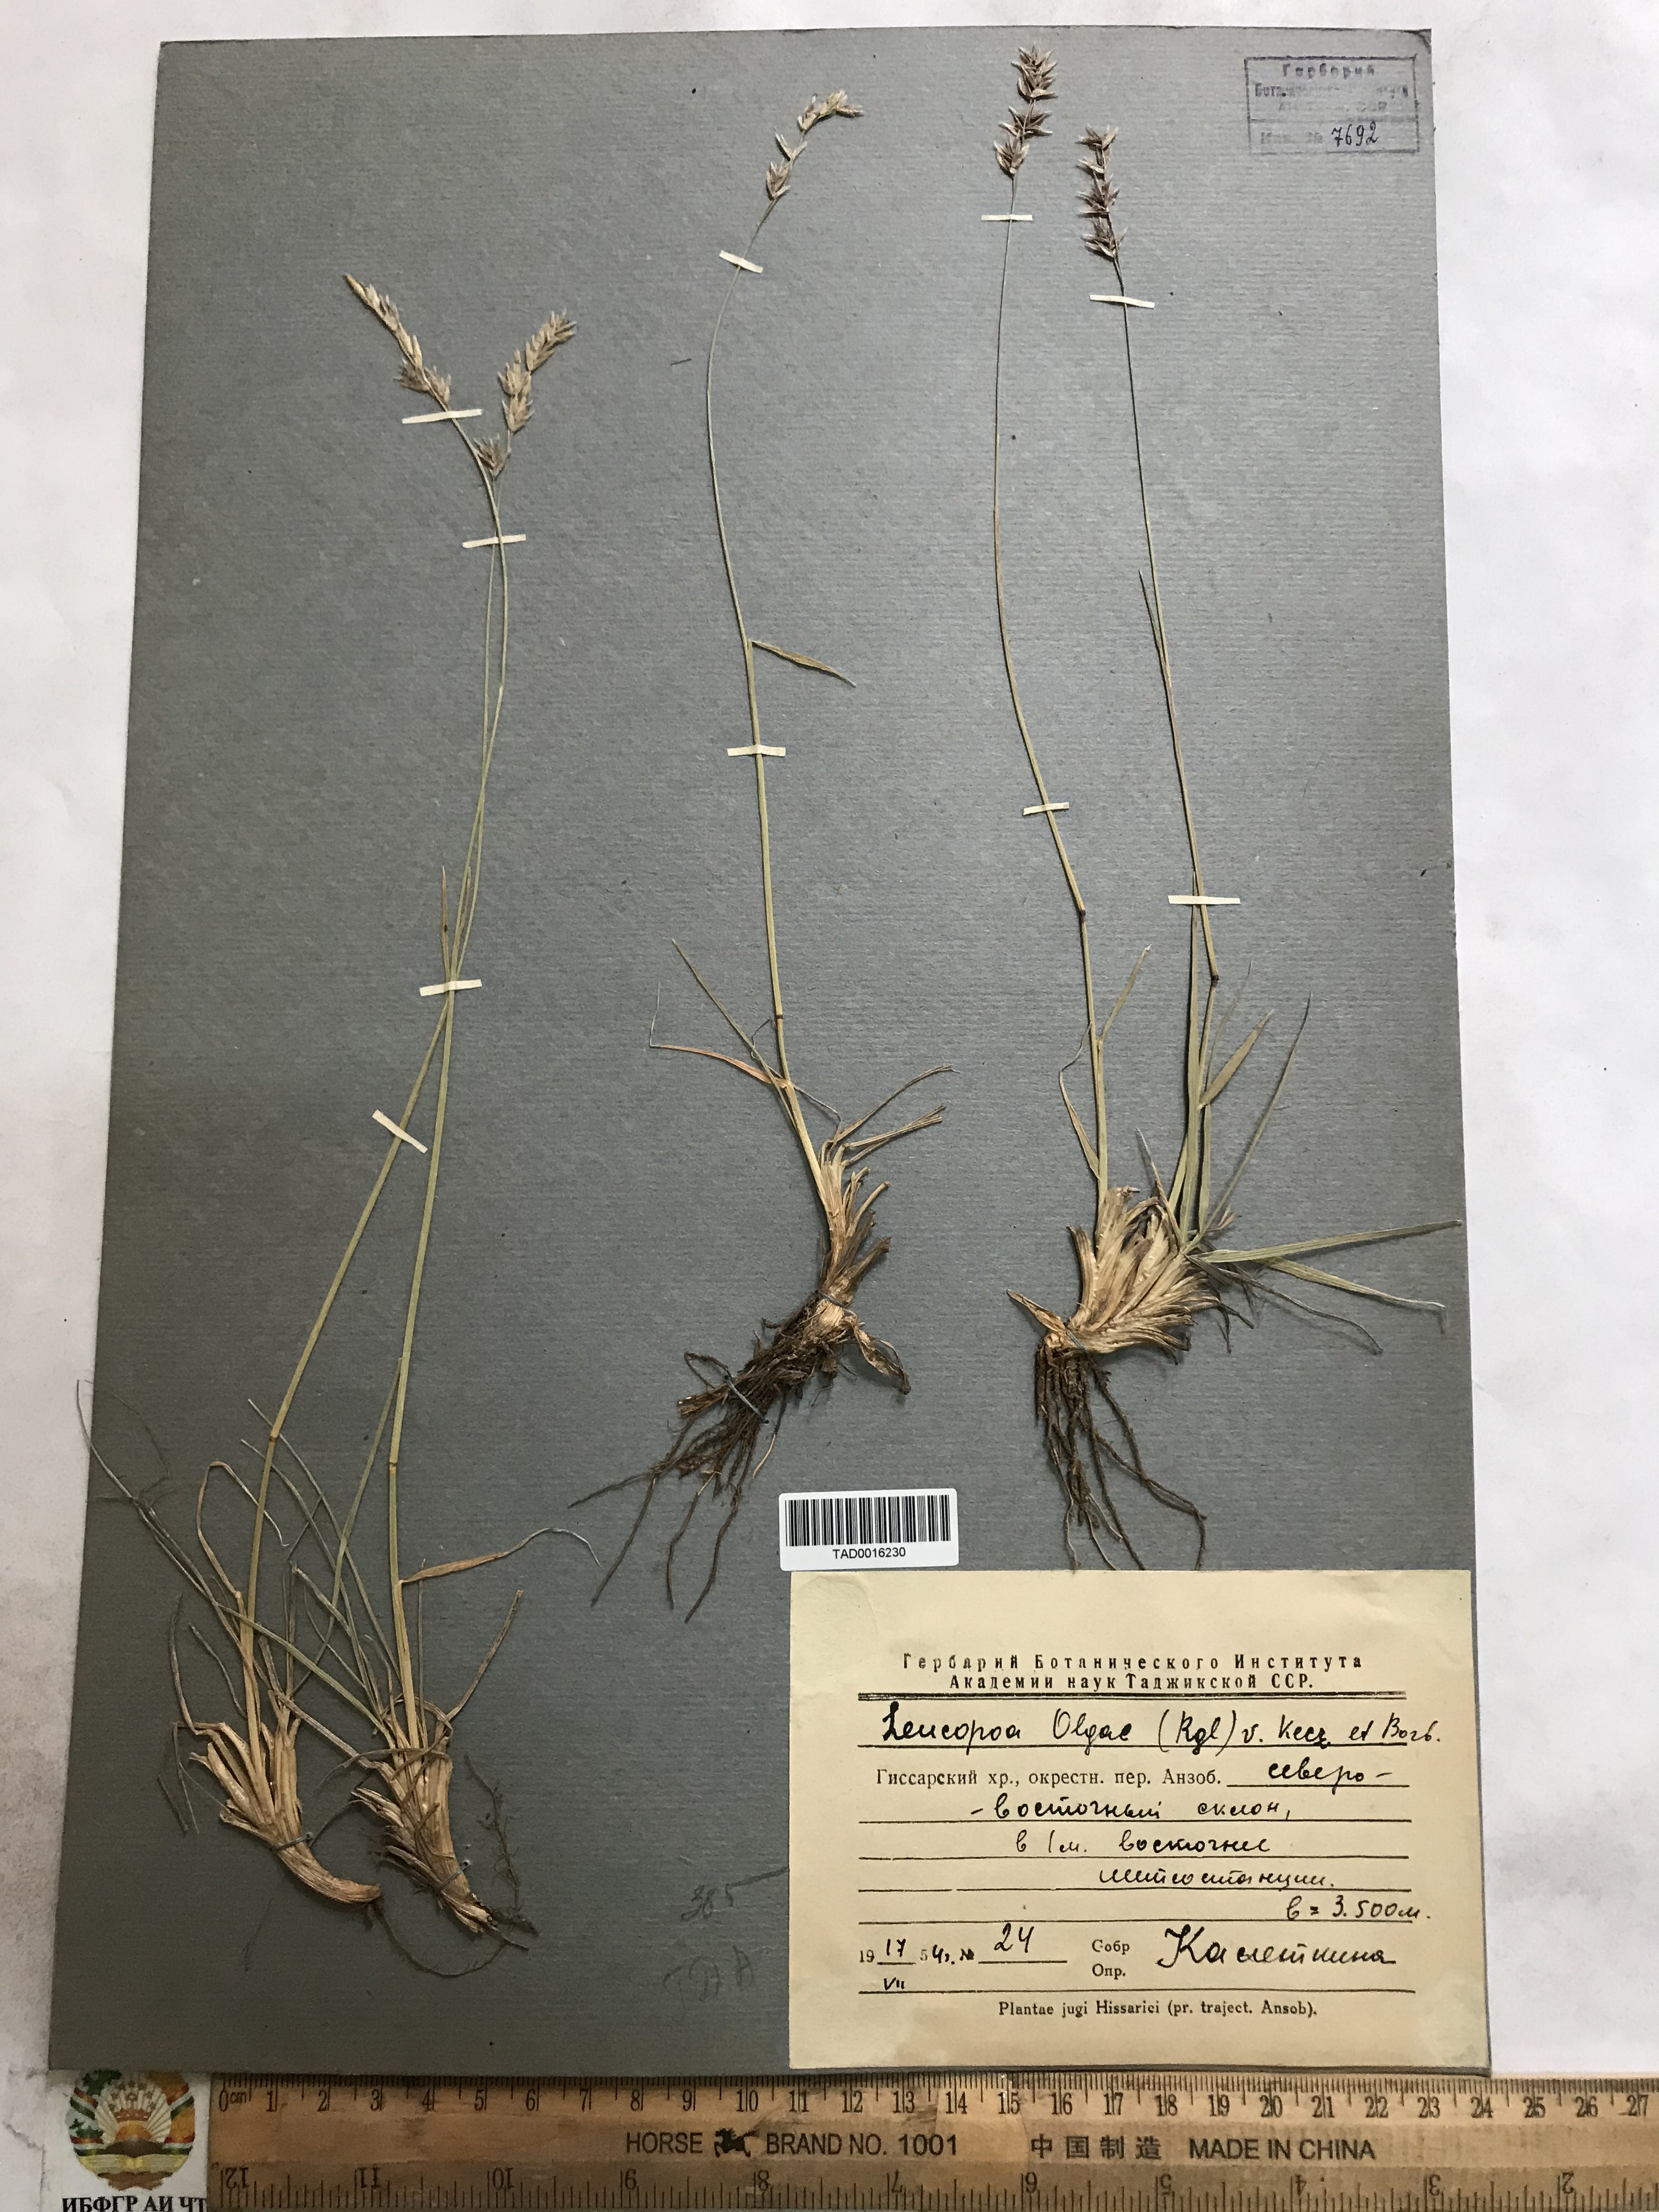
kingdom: Plantae
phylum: Tracheophyta
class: Liliopsida
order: Poales
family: Poaceae
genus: Festuca
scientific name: Festuca
